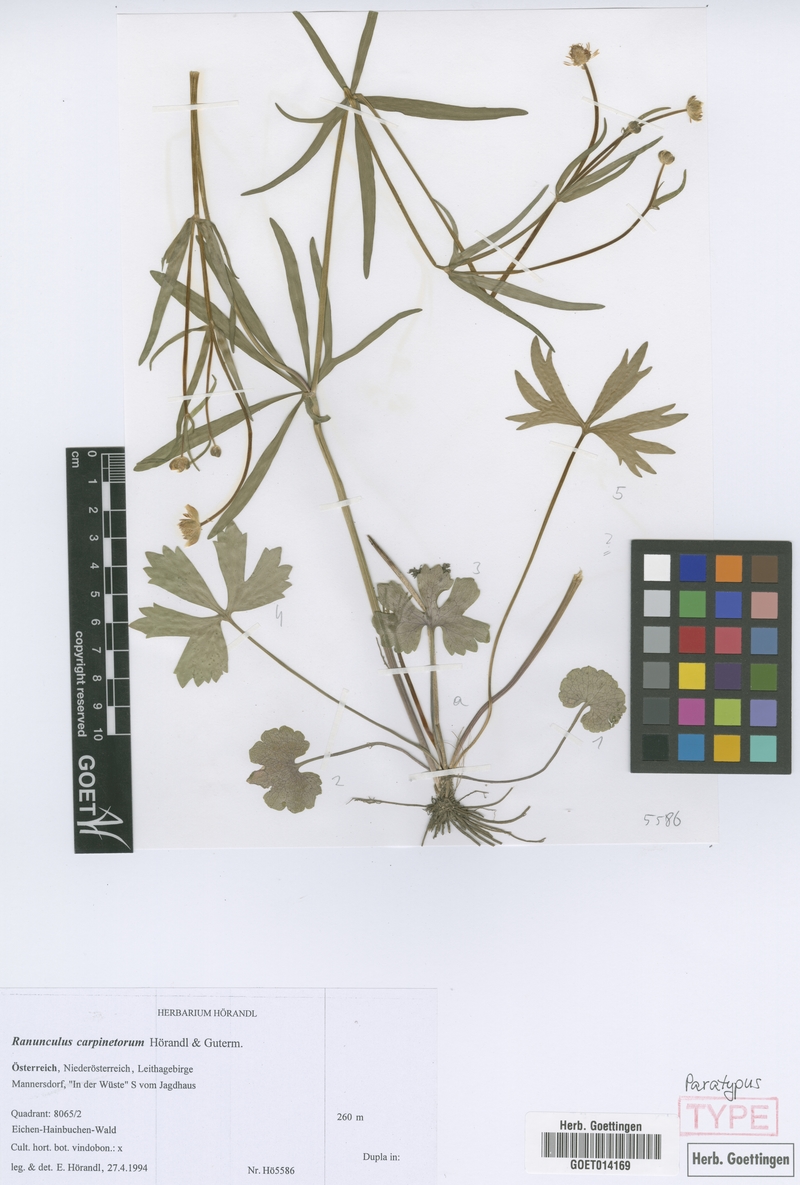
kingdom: Plantae
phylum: Tracheophyta
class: Magnoliopsida
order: Ranunculales
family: Ranunculaceae
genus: Ranunculus
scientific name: Ranunculus carpinetorum
